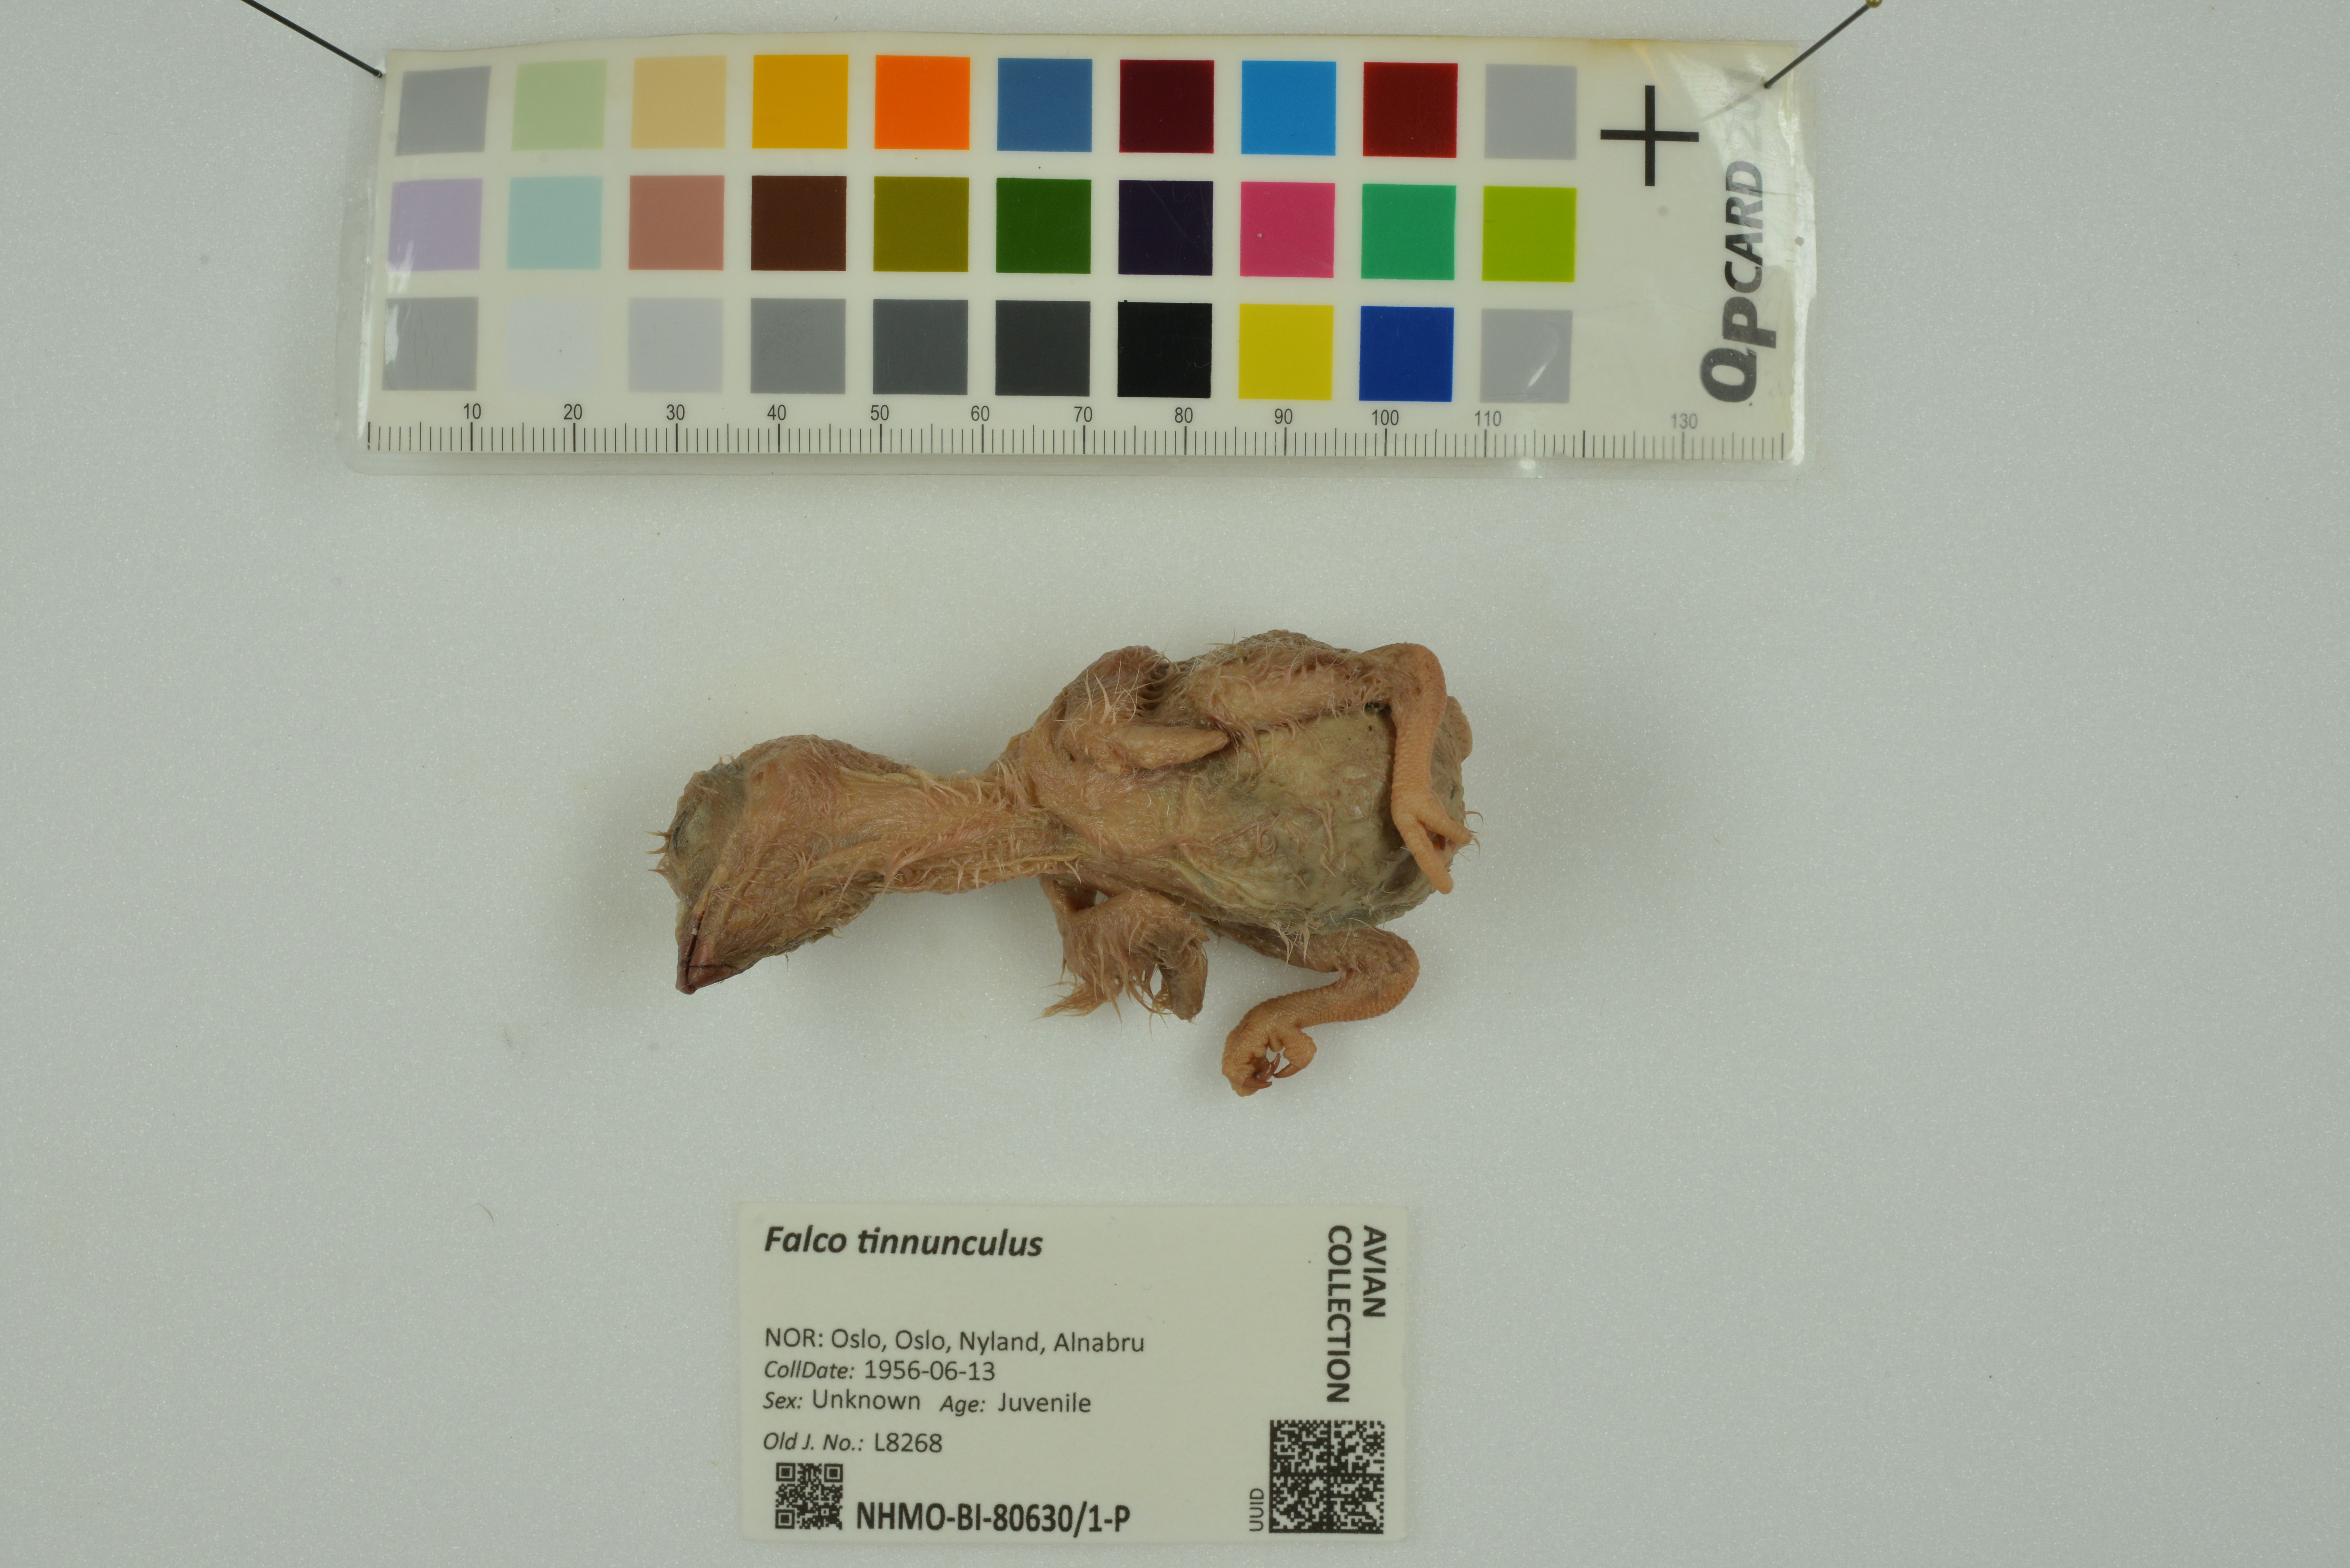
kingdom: Animalia
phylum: Chordata
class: Aves
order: Falconiformes
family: Falconidae
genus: Falco
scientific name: Falco tinnunculus
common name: Common kestrel
